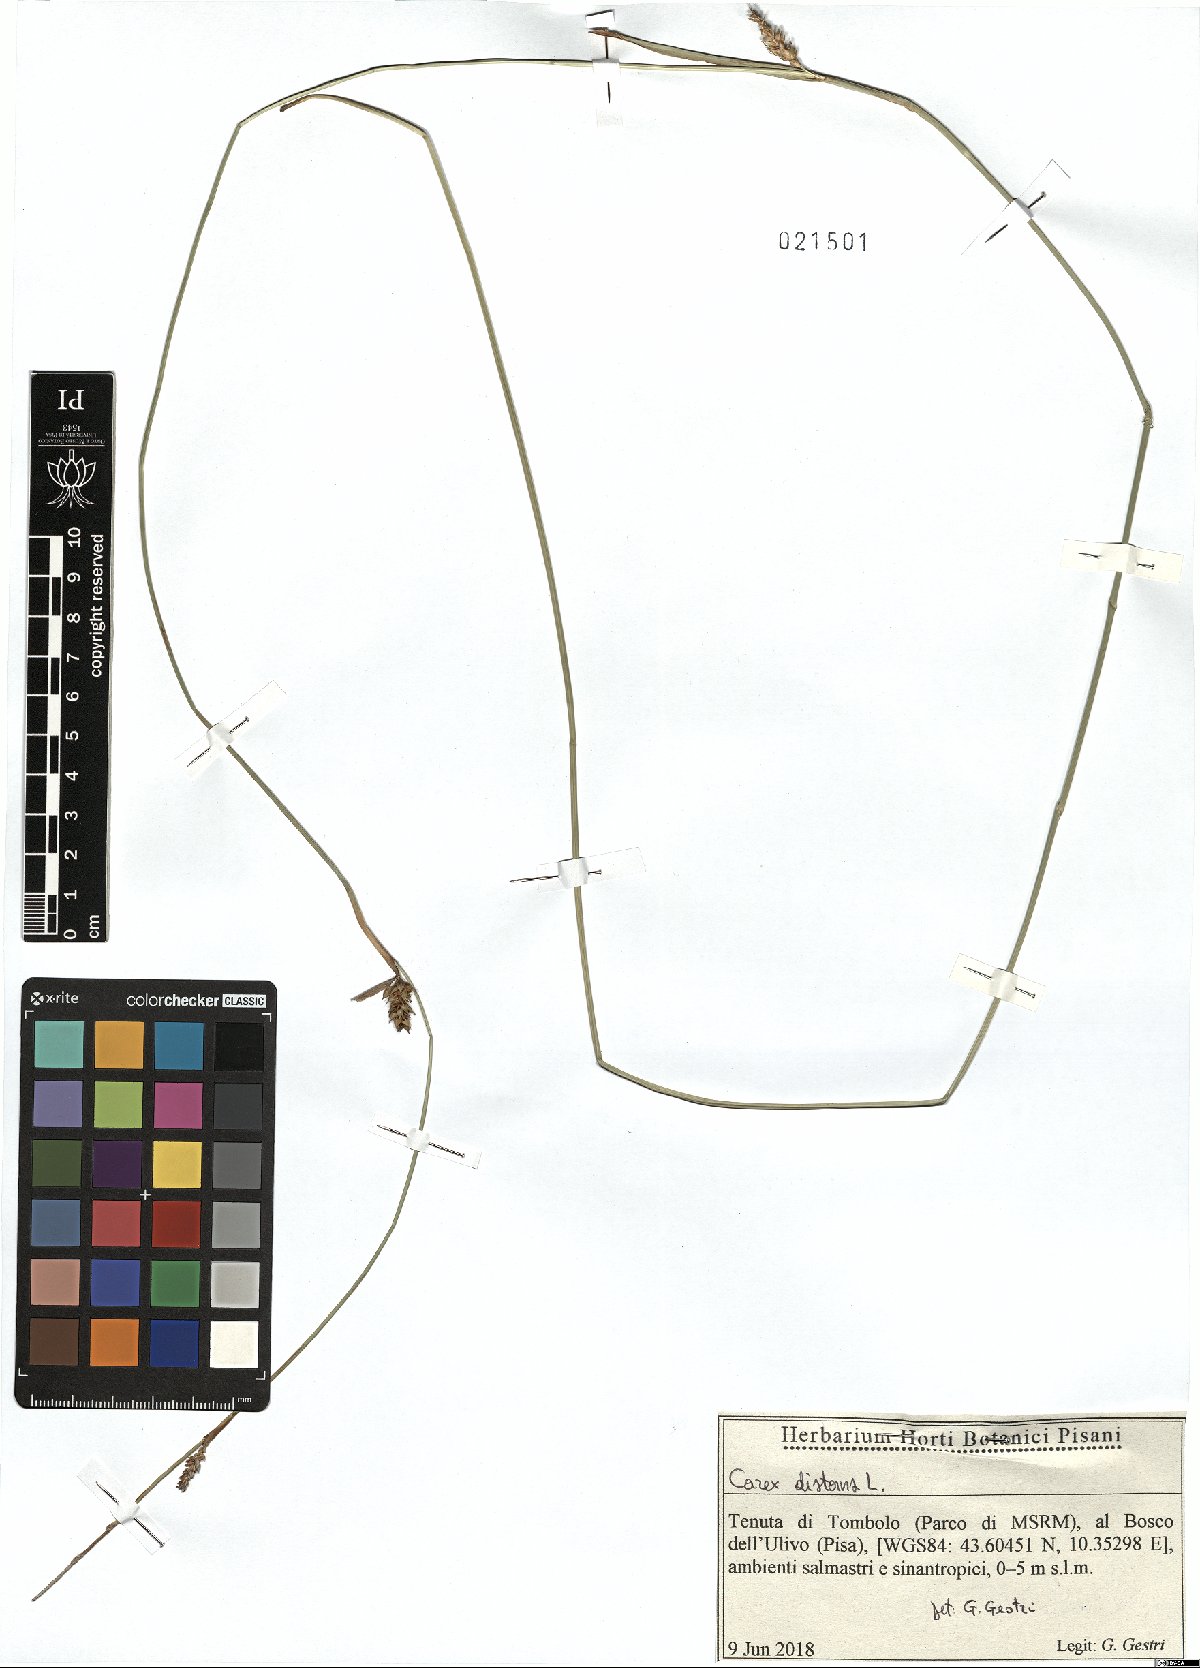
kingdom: Plantae
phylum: Tracheophyta
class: Liliopsida
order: Poales
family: Cyperaceae
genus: Carex
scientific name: Carex distans
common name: Distant sedge
